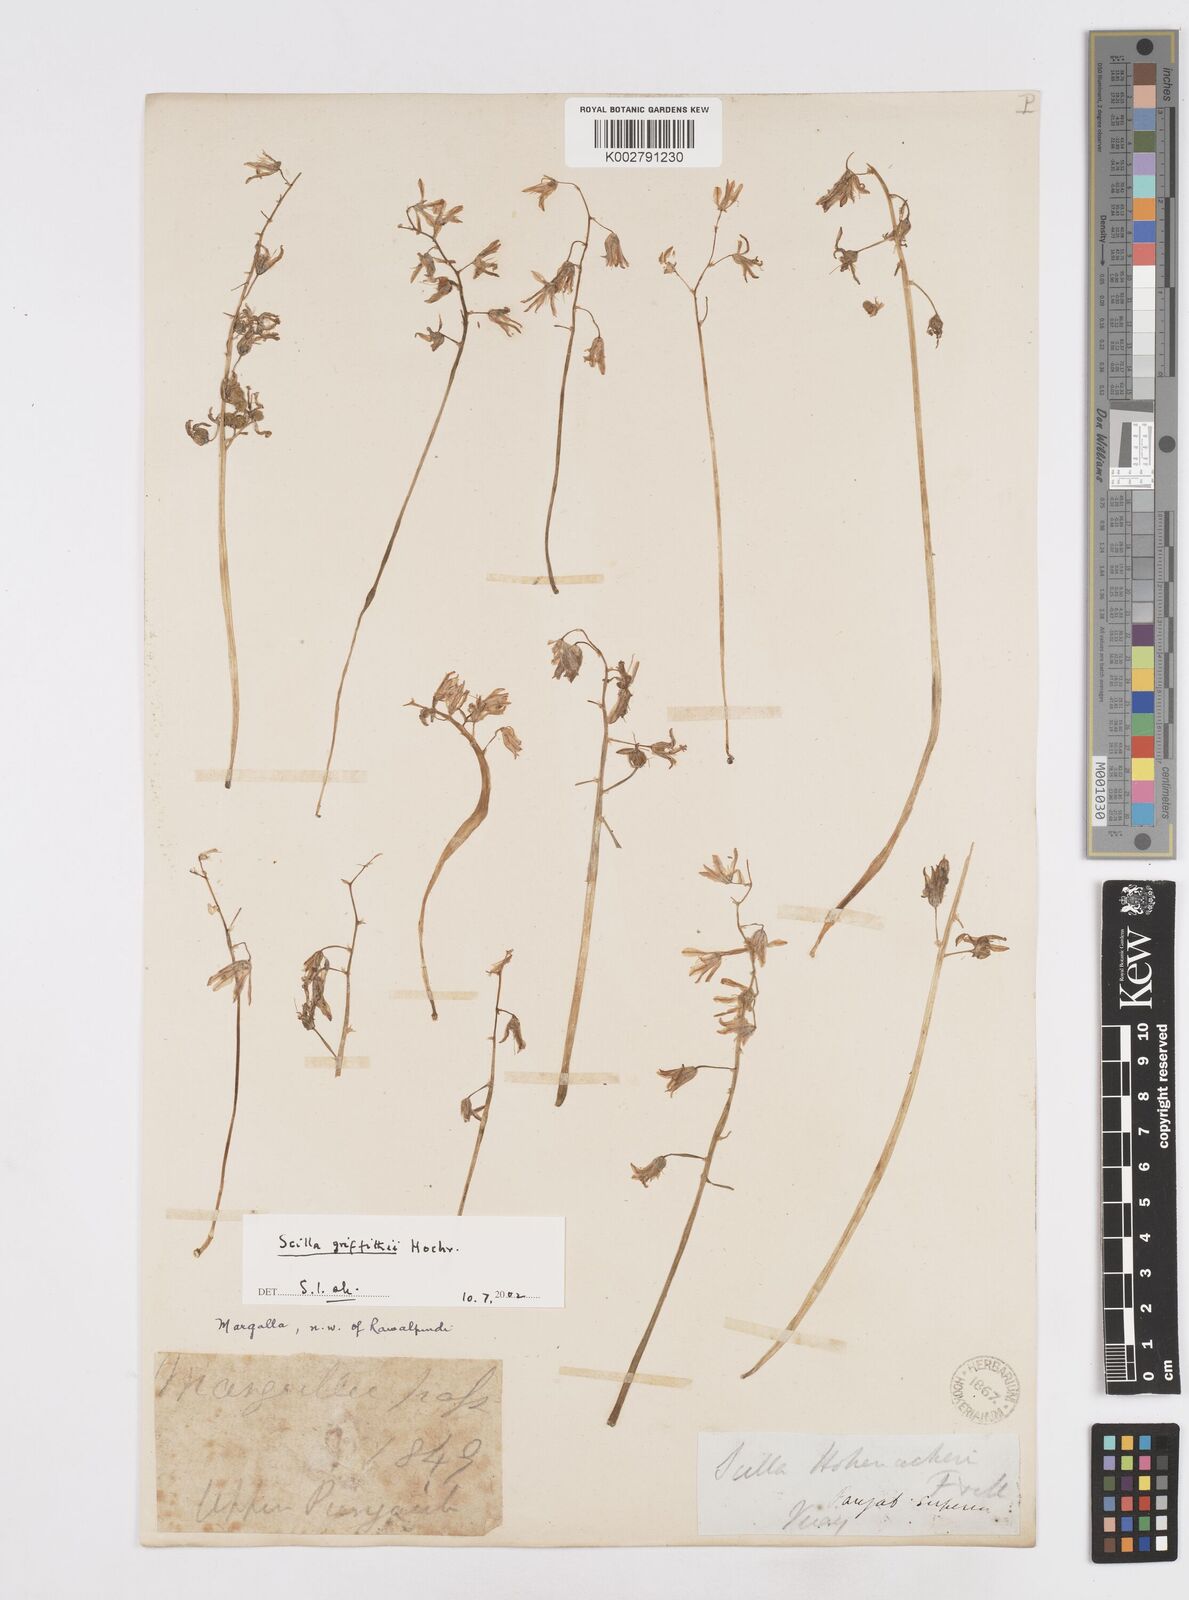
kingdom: Plantae
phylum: Tracheophyta
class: Liliopsida
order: Asparagales
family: Asparagaceae
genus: Scilla
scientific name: Scilla bifolia
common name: Alpine squill
